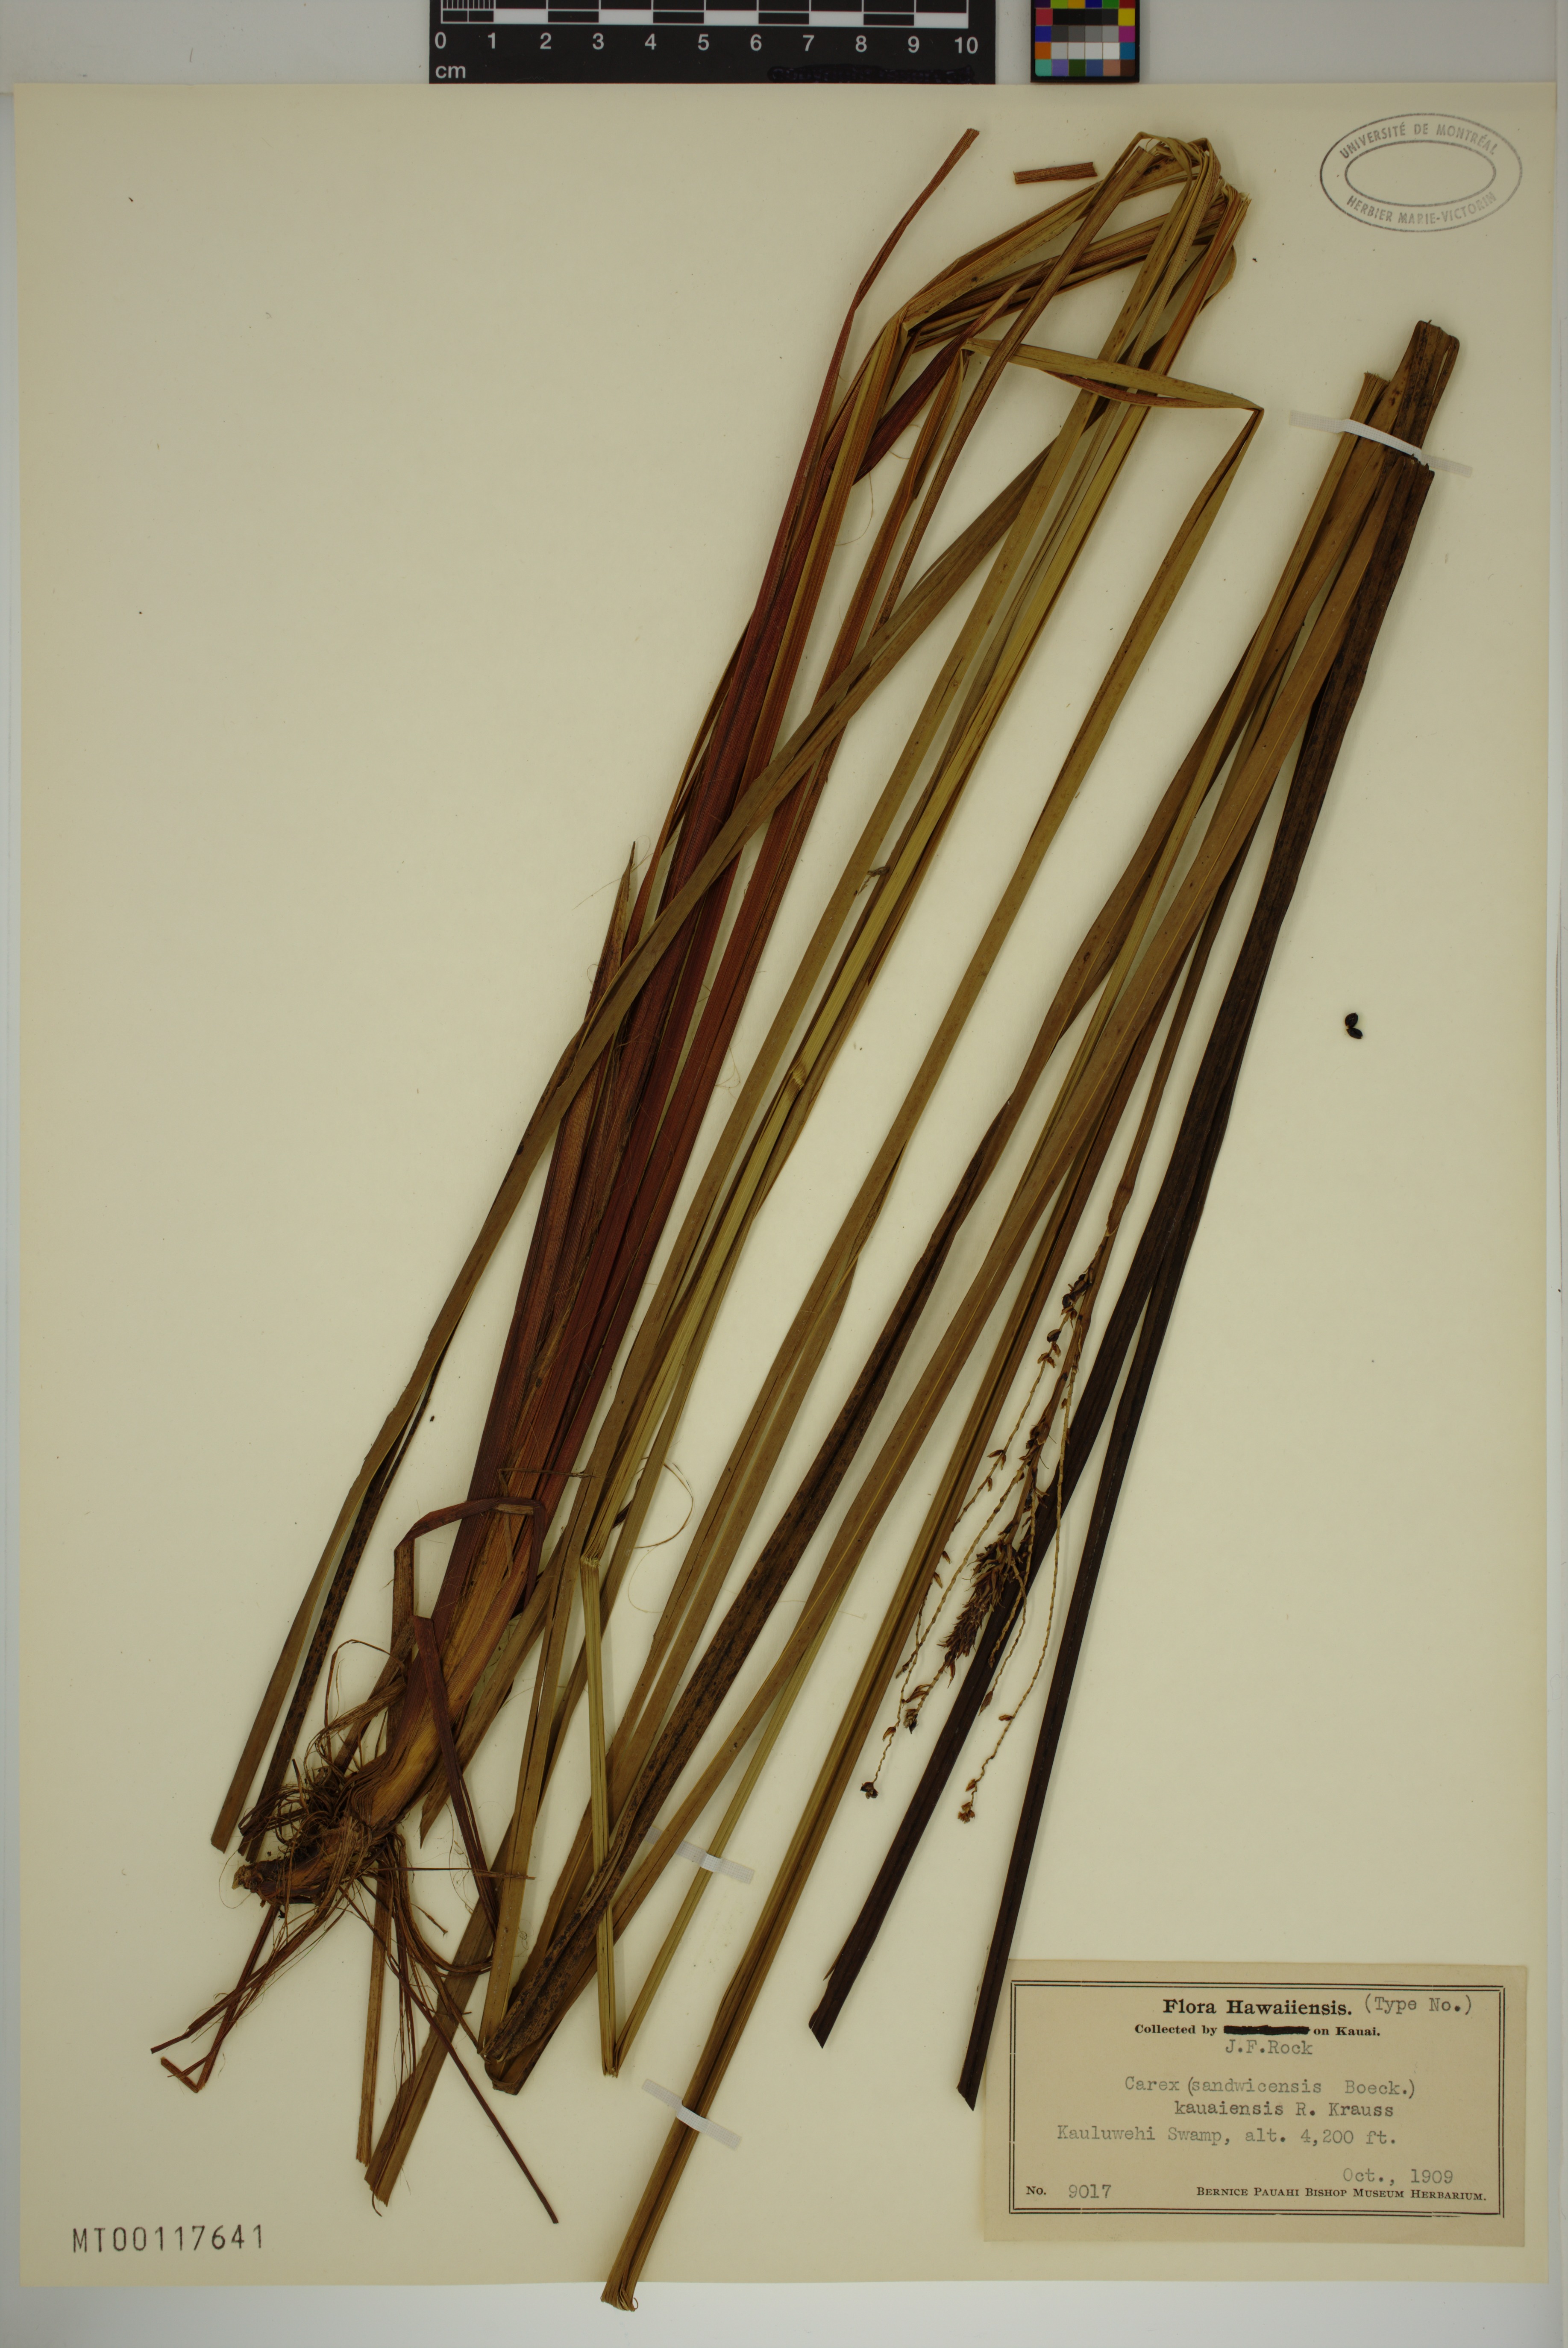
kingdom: Plantae
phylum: Tracheophyta
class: Liliopsida
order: Poales
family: Cyperaceae
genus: Carex
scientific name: Carex kauaiensis
